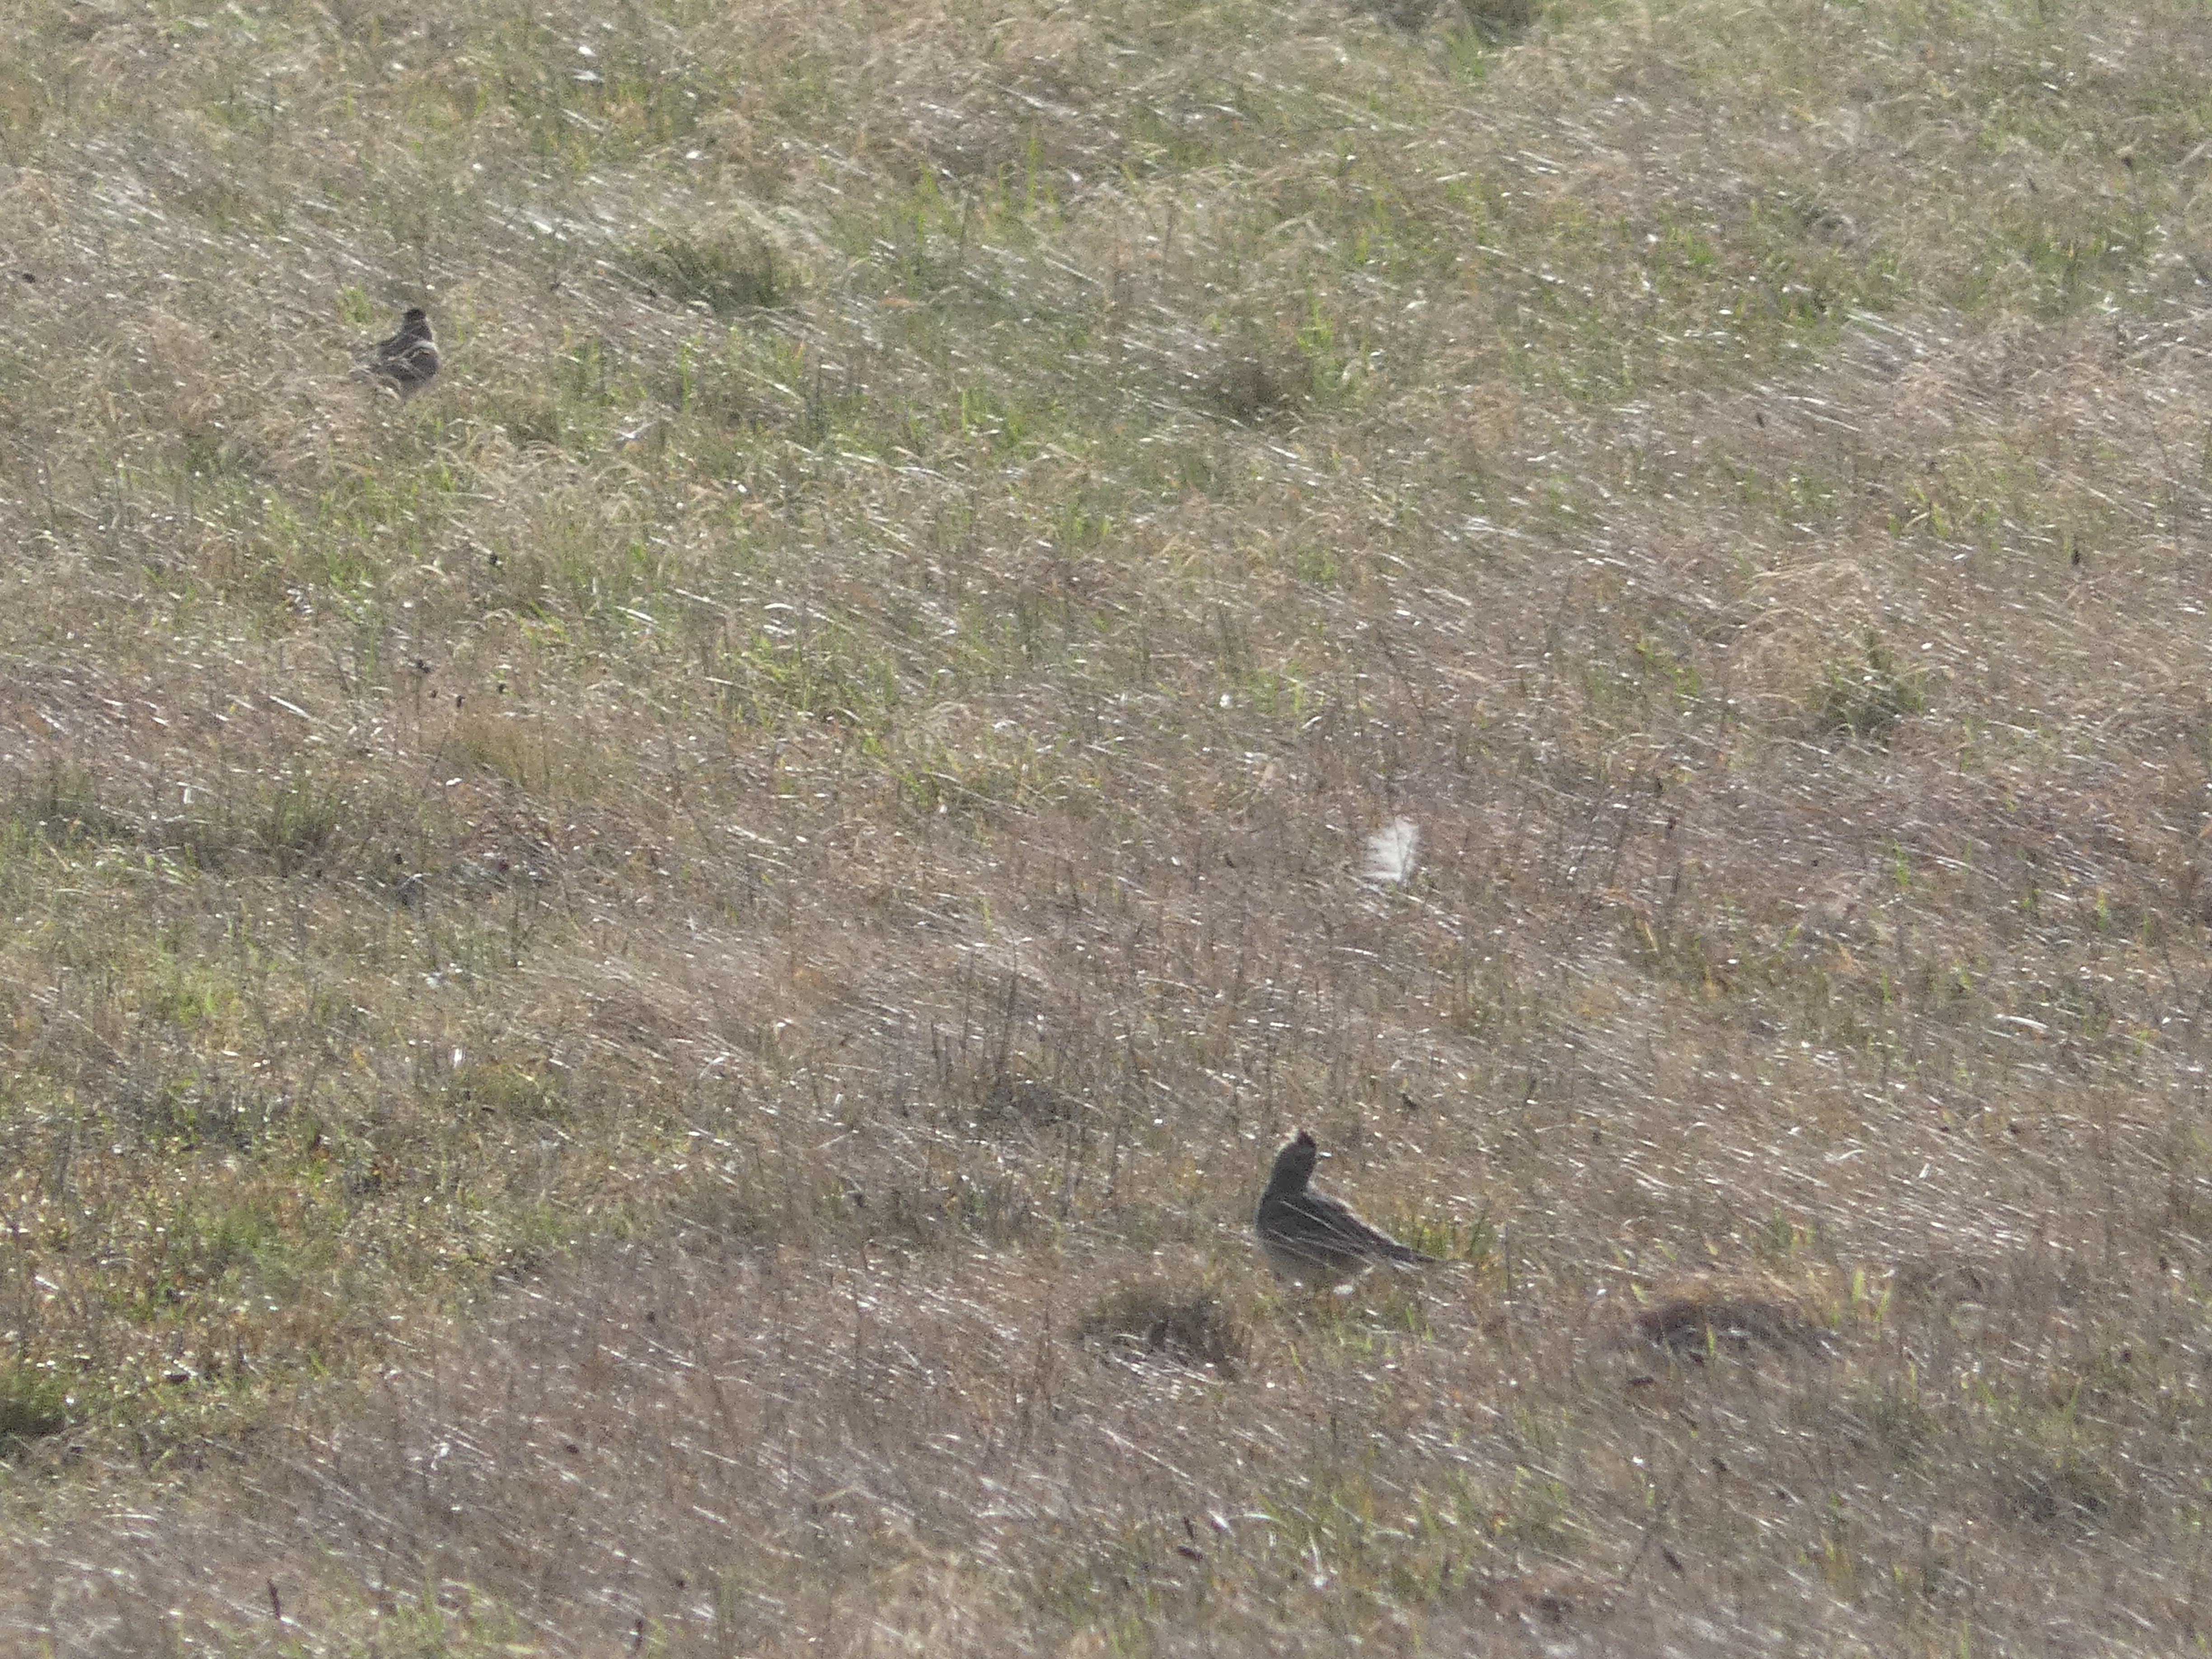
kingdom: Animalia
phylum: Chordata
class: Aves
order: Passeriformes
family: Alaudidae
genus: Alauda
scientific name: Alauda arvensis
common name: Sanglærke
